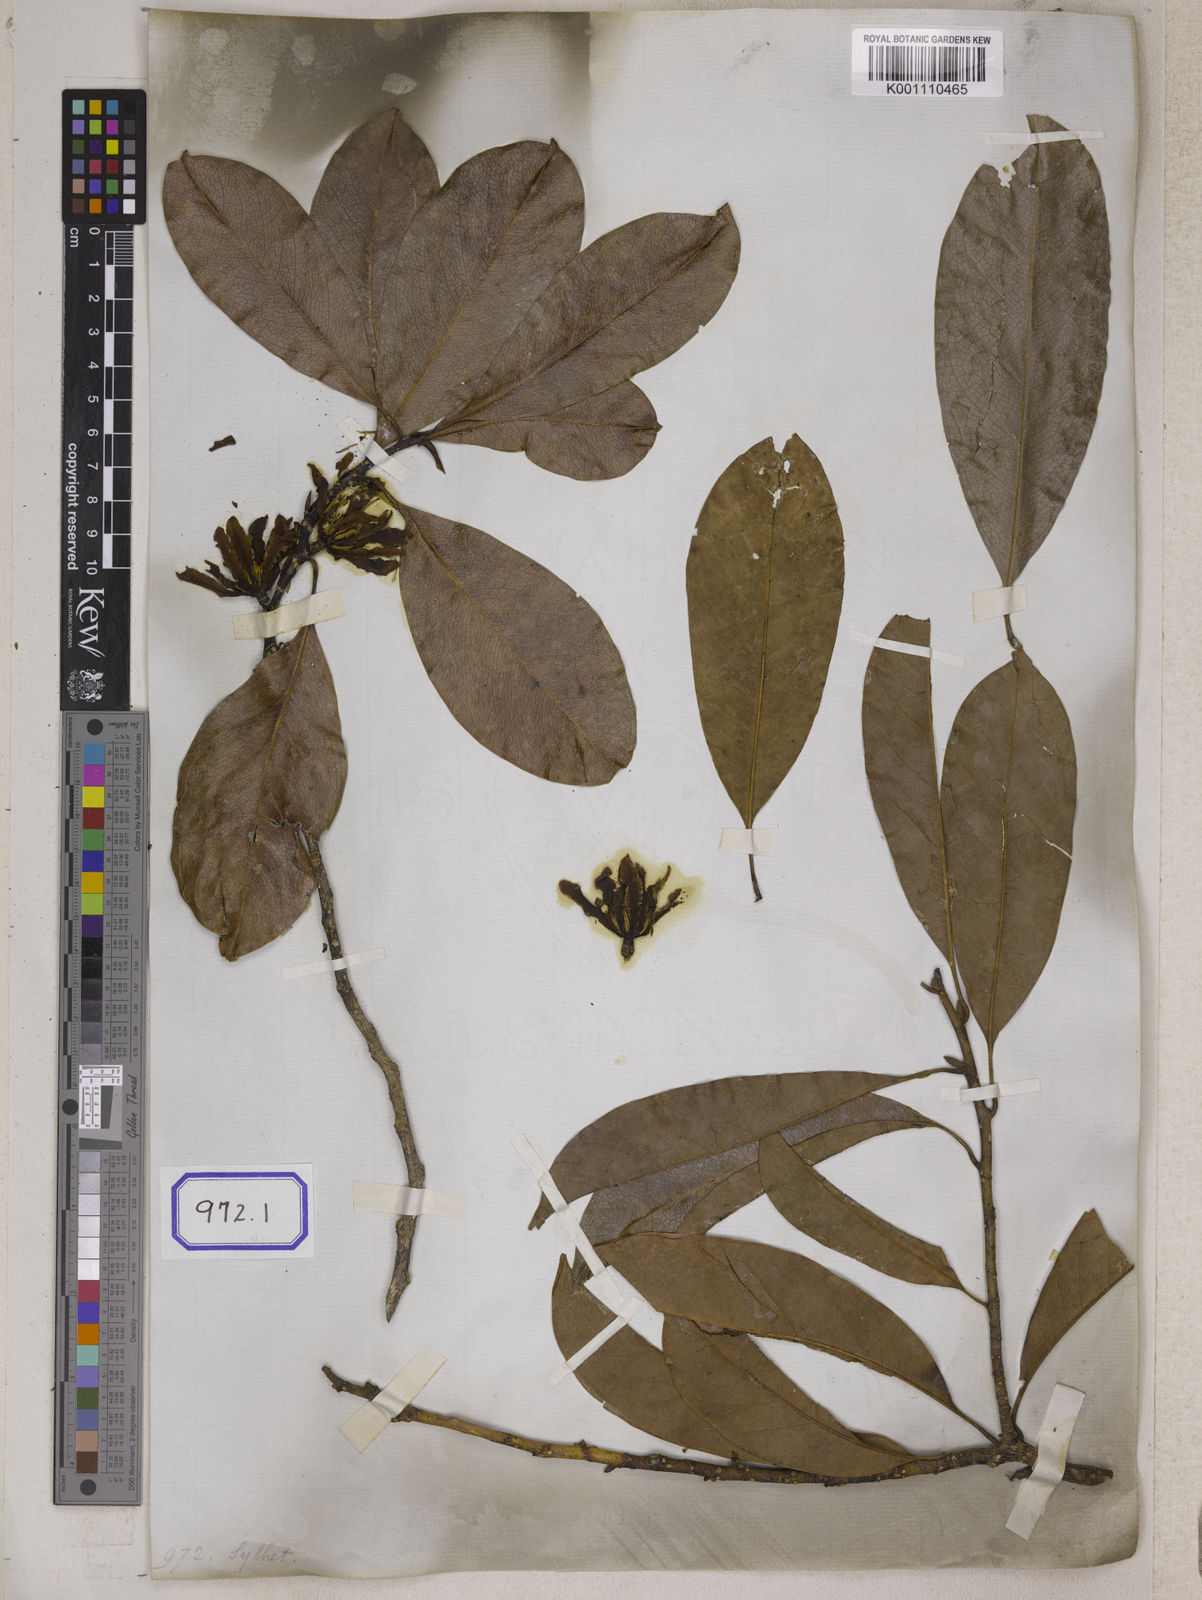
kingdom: Plantae
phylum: Tracheophyta
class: Magnoliopsida
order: Magnoliales
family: Magnoliaceae
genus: Michelia
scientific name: Michelia
